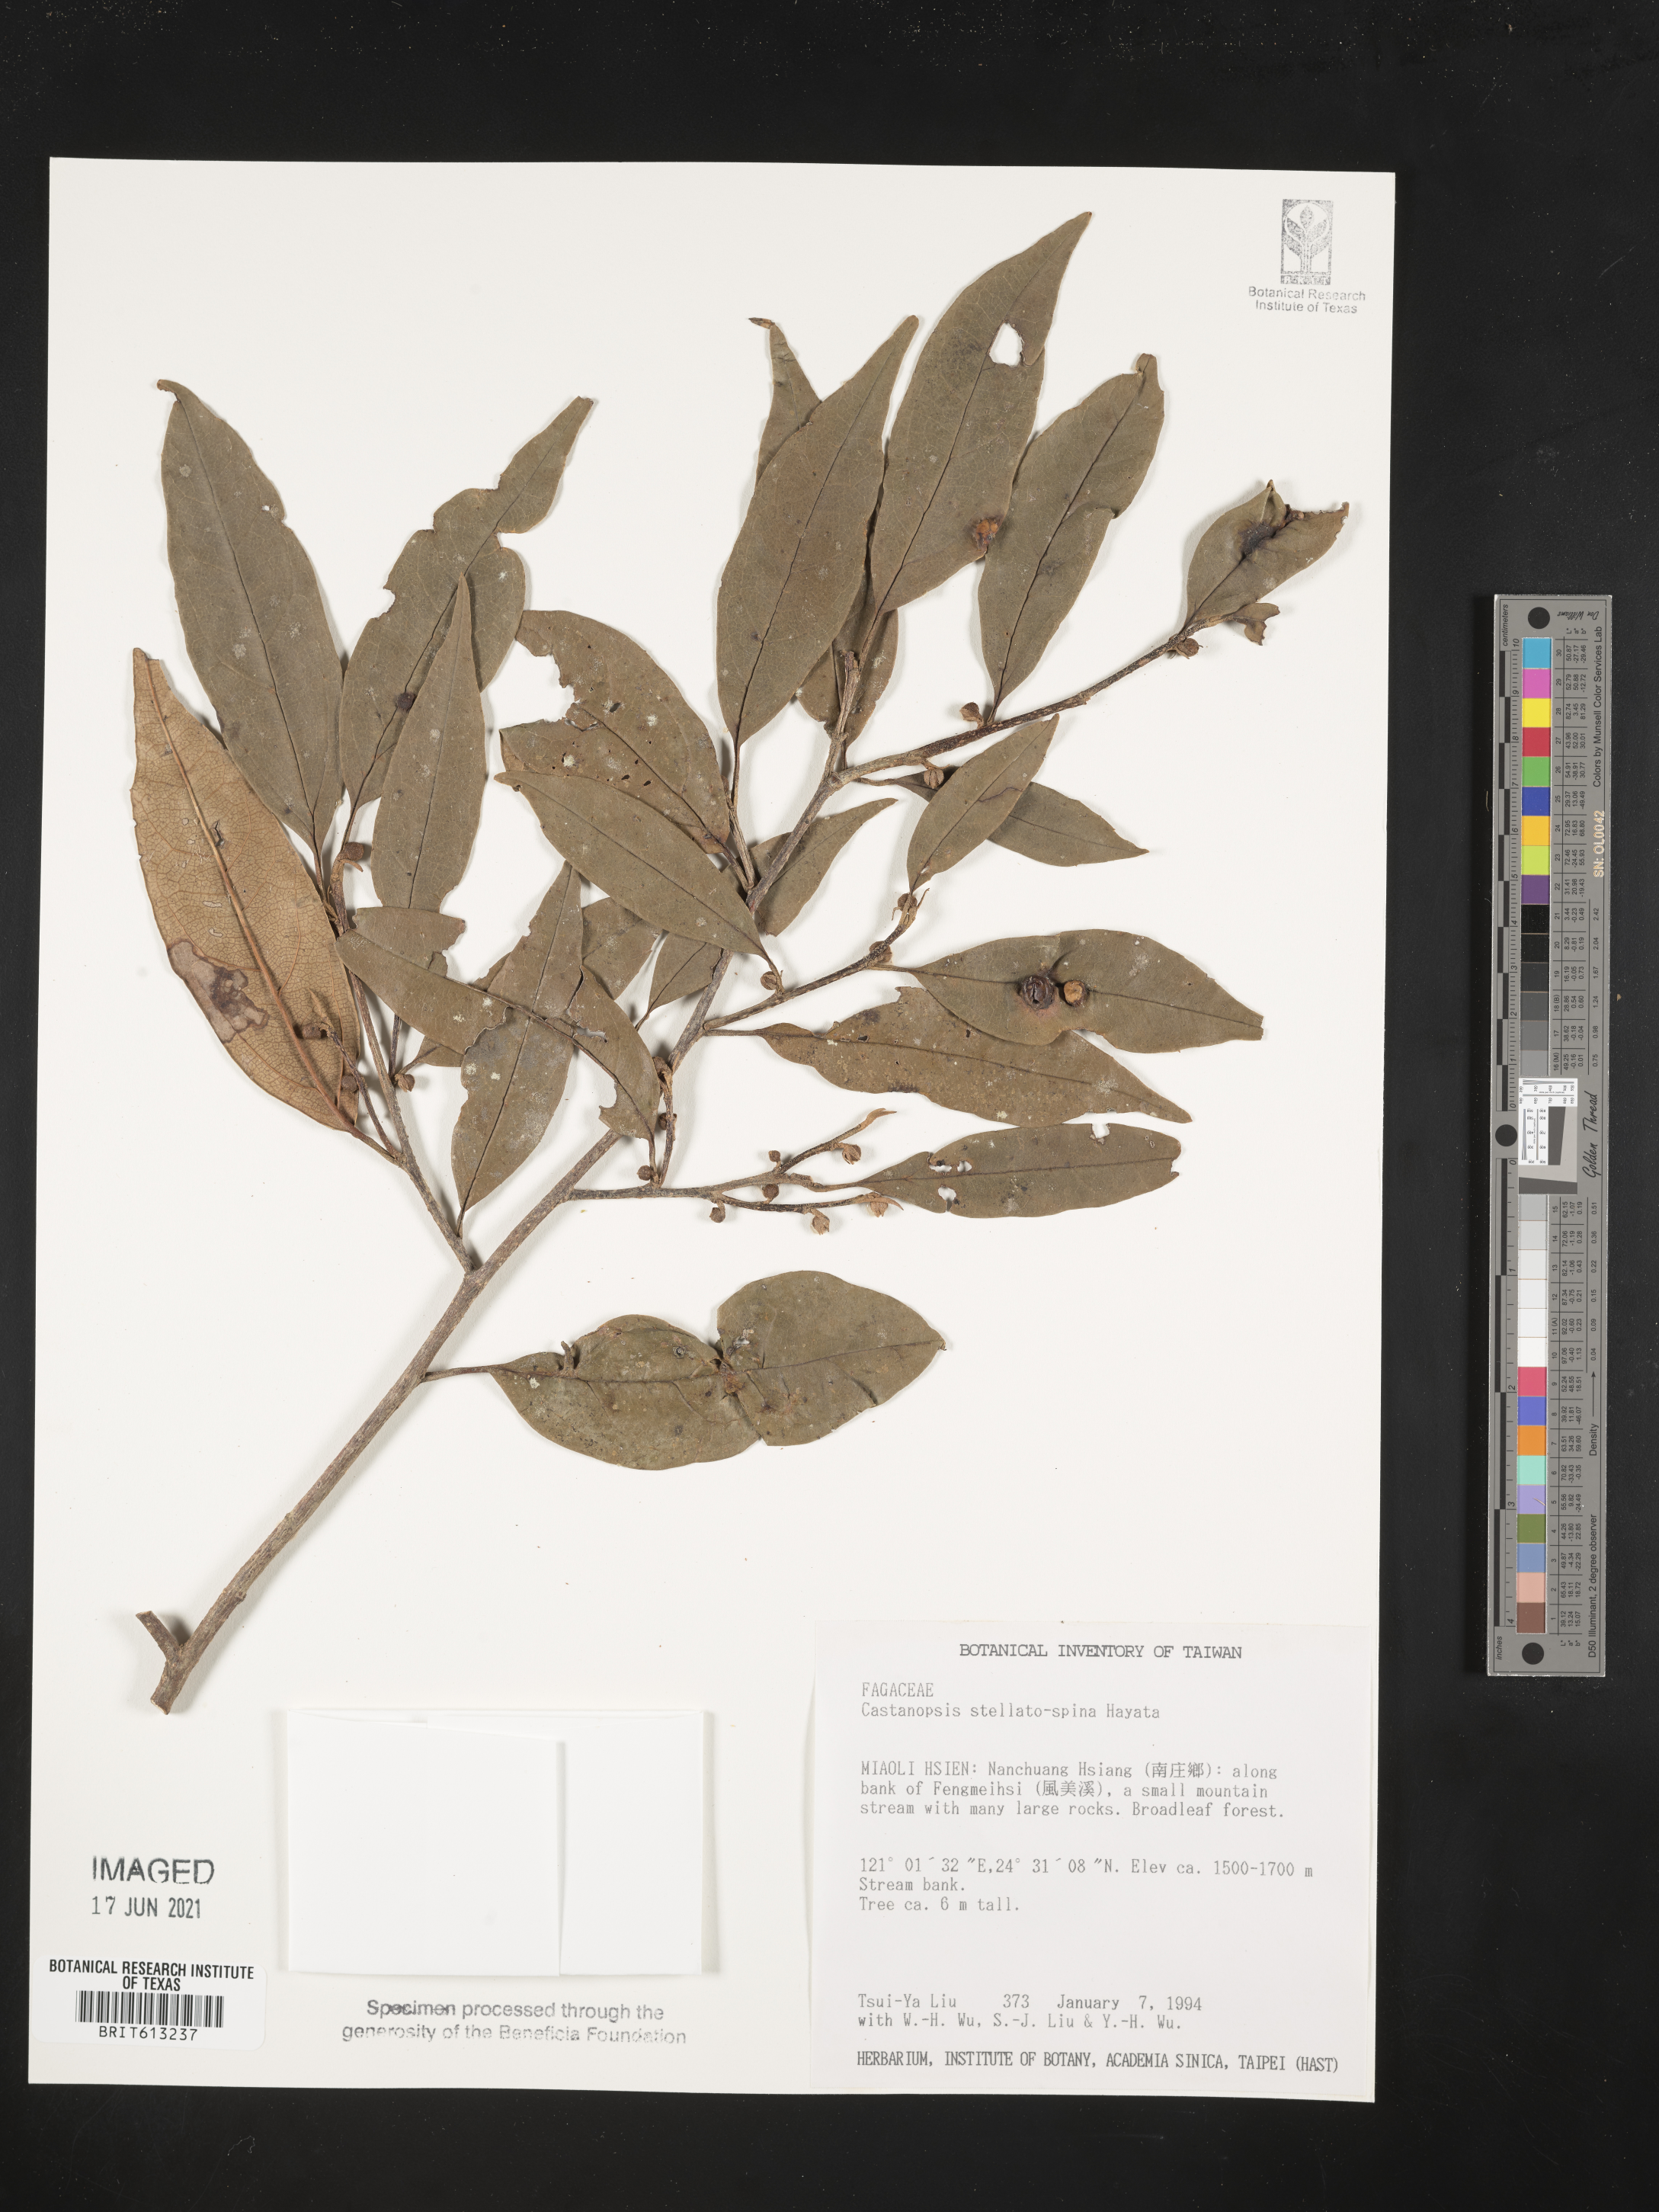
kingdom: Plantae
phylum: Tracheophyta
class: Magnoliopsida
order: Fagales
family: Fagaceae
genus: Castanopsis
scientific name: Castanopsis faberi
